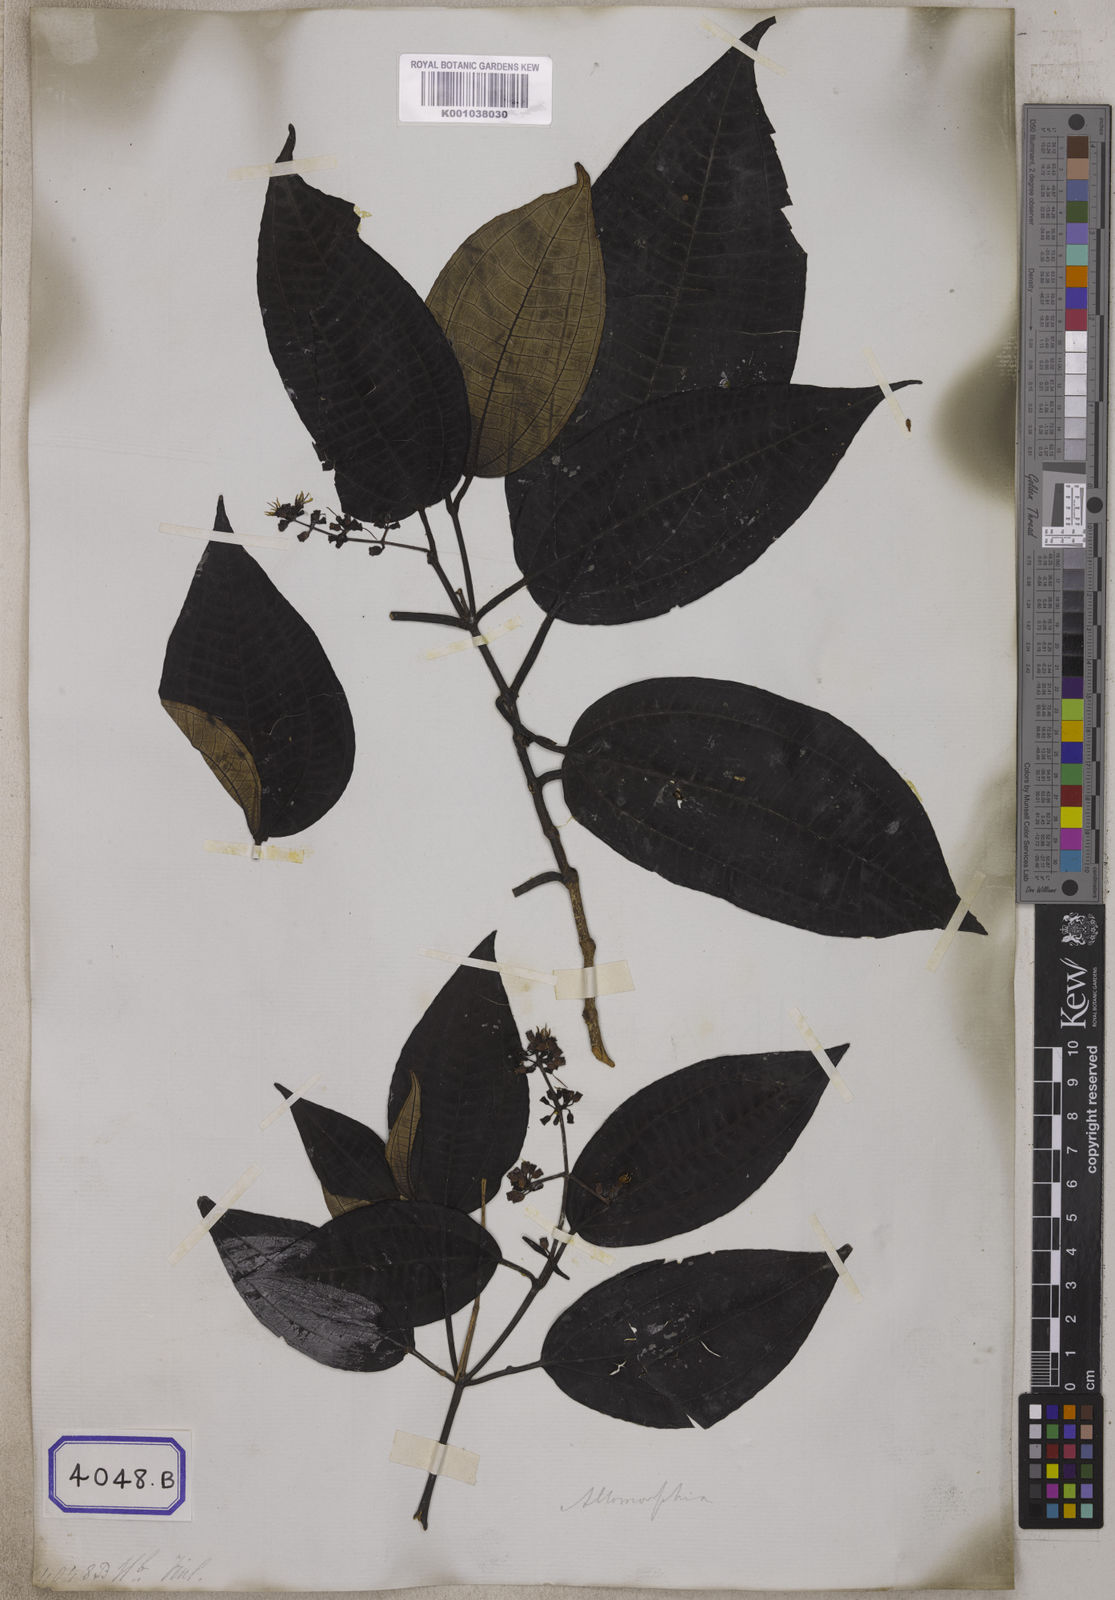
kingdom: Plantae
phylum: Tracheophyta
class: Magnoliopsida
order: Myrtales
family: Melastomataceae
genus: Allomorphia
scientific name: Allomorphia exigua
